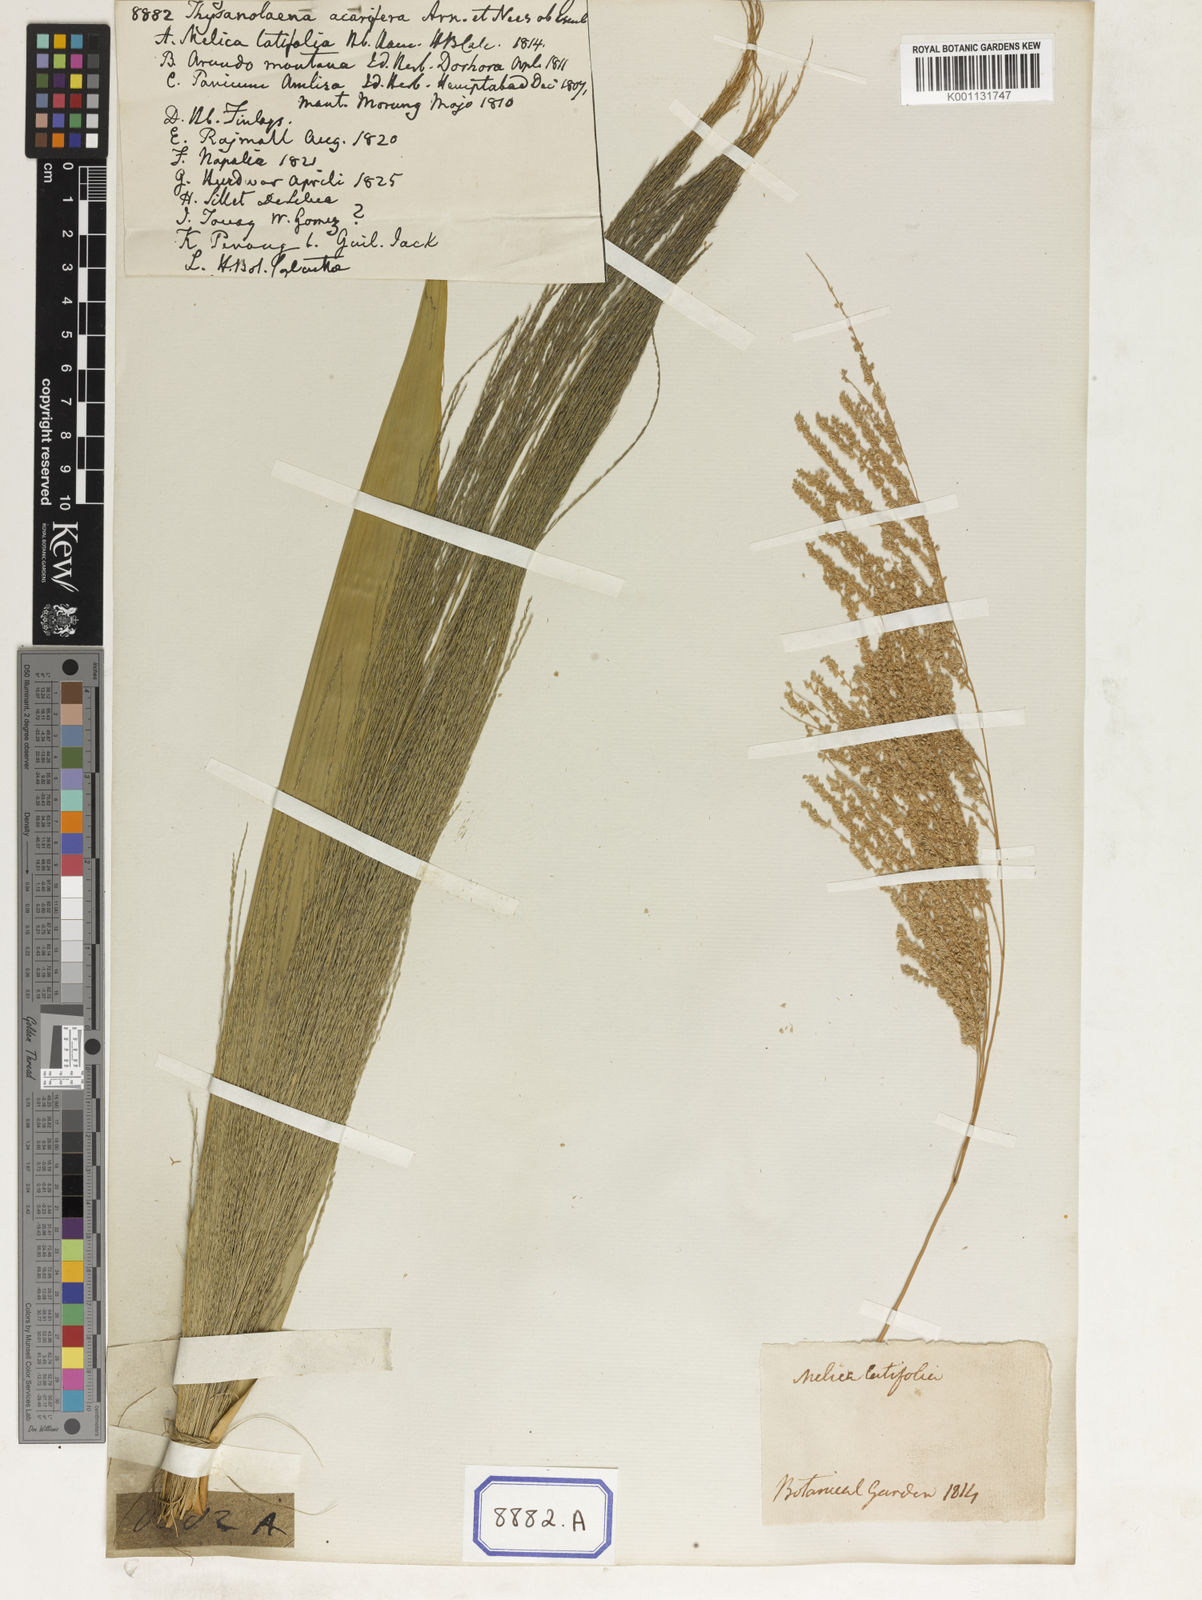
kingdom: Plantae
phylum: Tracheophyta
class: Liliopsida
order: Poales
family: Poaceae
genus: Thysanolaena
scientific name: Thysanolaena latifolia
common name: Tiger grass
